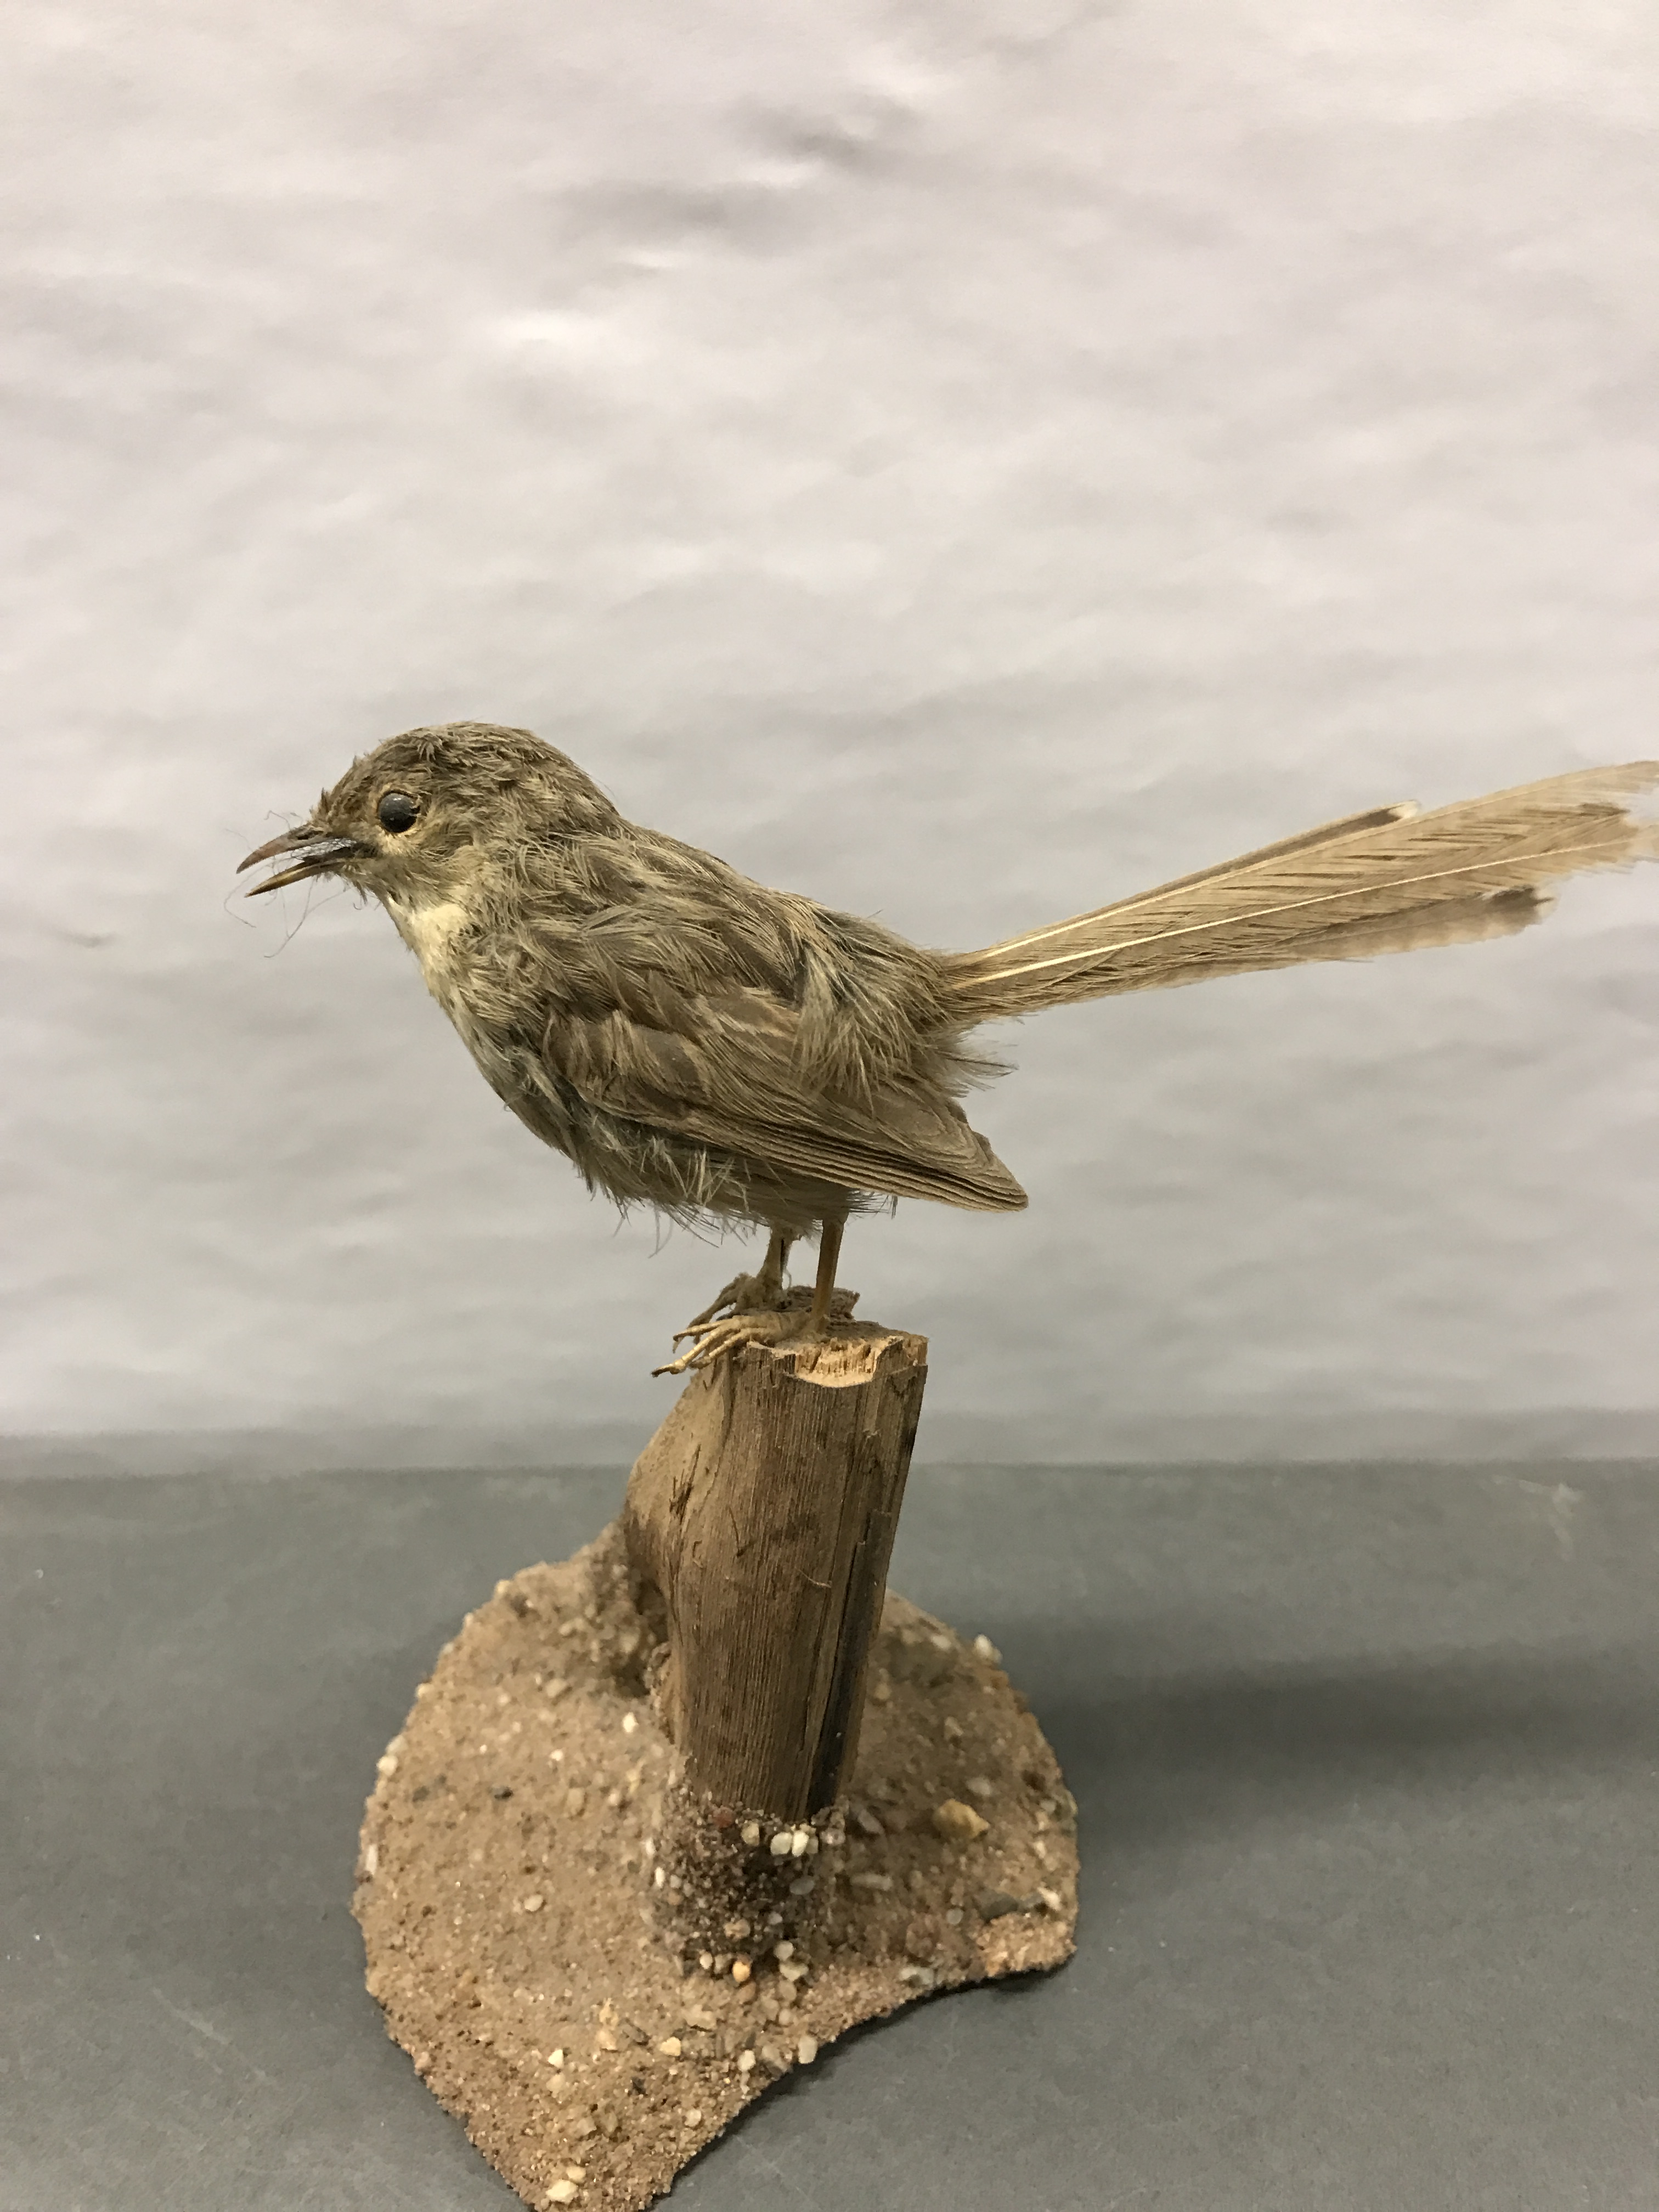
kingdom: Animalia
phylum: Chordata
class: Aves
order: Passeriformes
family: Cisticolidae
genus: Prinia
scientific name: Prinia gracilis
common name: Graceful prinia
